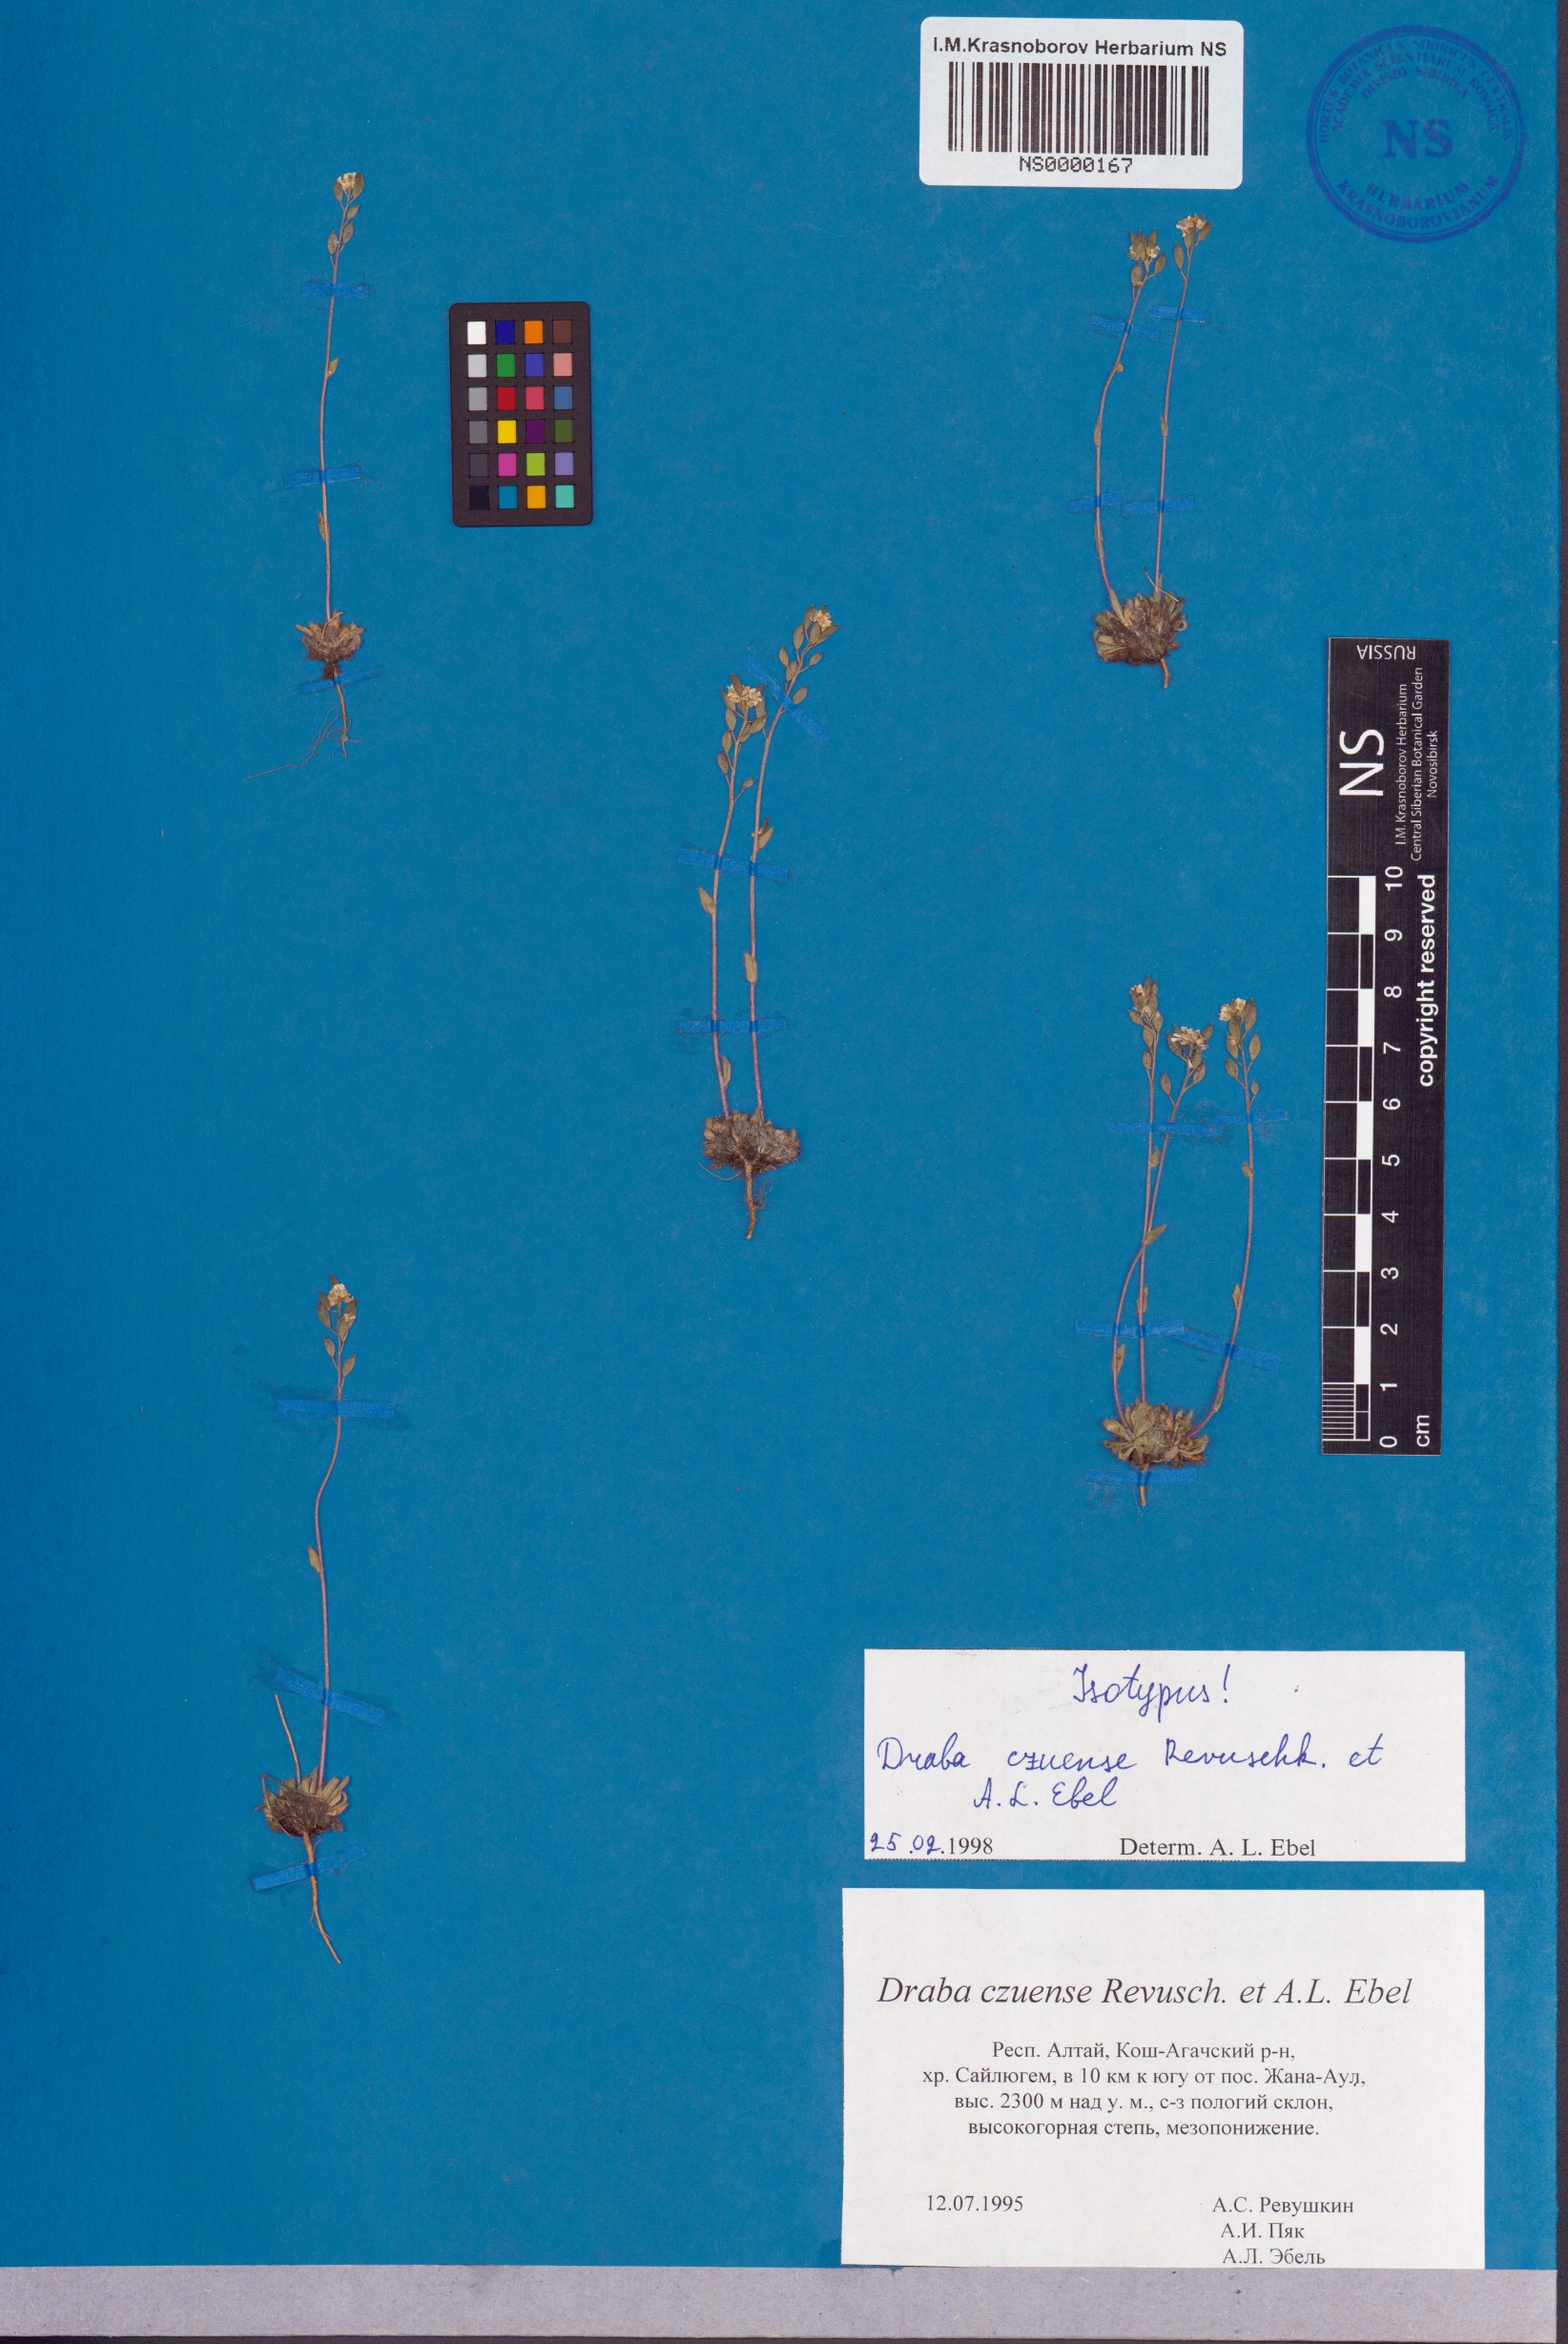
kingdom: Plantae
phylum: Tracheophyta
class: Magnoliopsida
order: Brassicales
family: Brassicaceae
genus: Draba
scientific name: Draba czuensis
